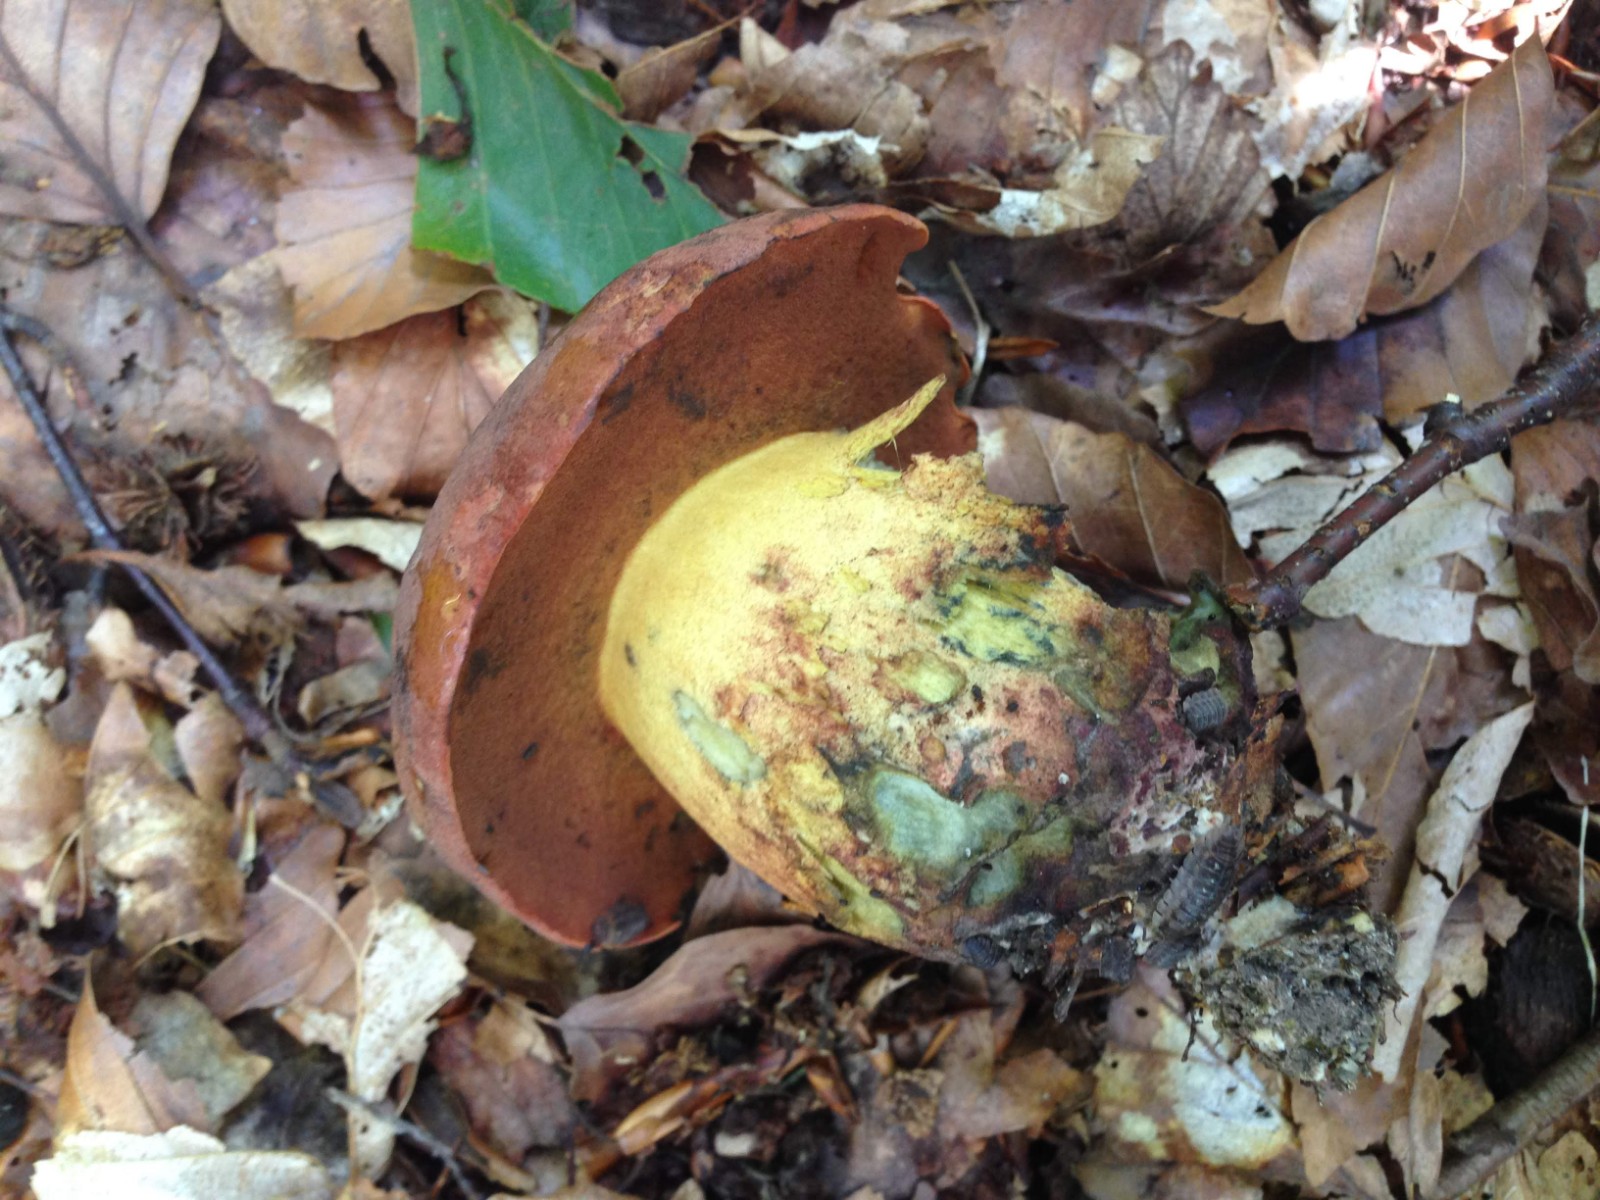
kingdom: Fungi
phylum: Basidiomycota
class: Agaricomycetes
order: Boletales
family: Boletaceae
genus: Suillellus
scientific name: Suillellus queletii
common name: glatstokket indigorørhat
